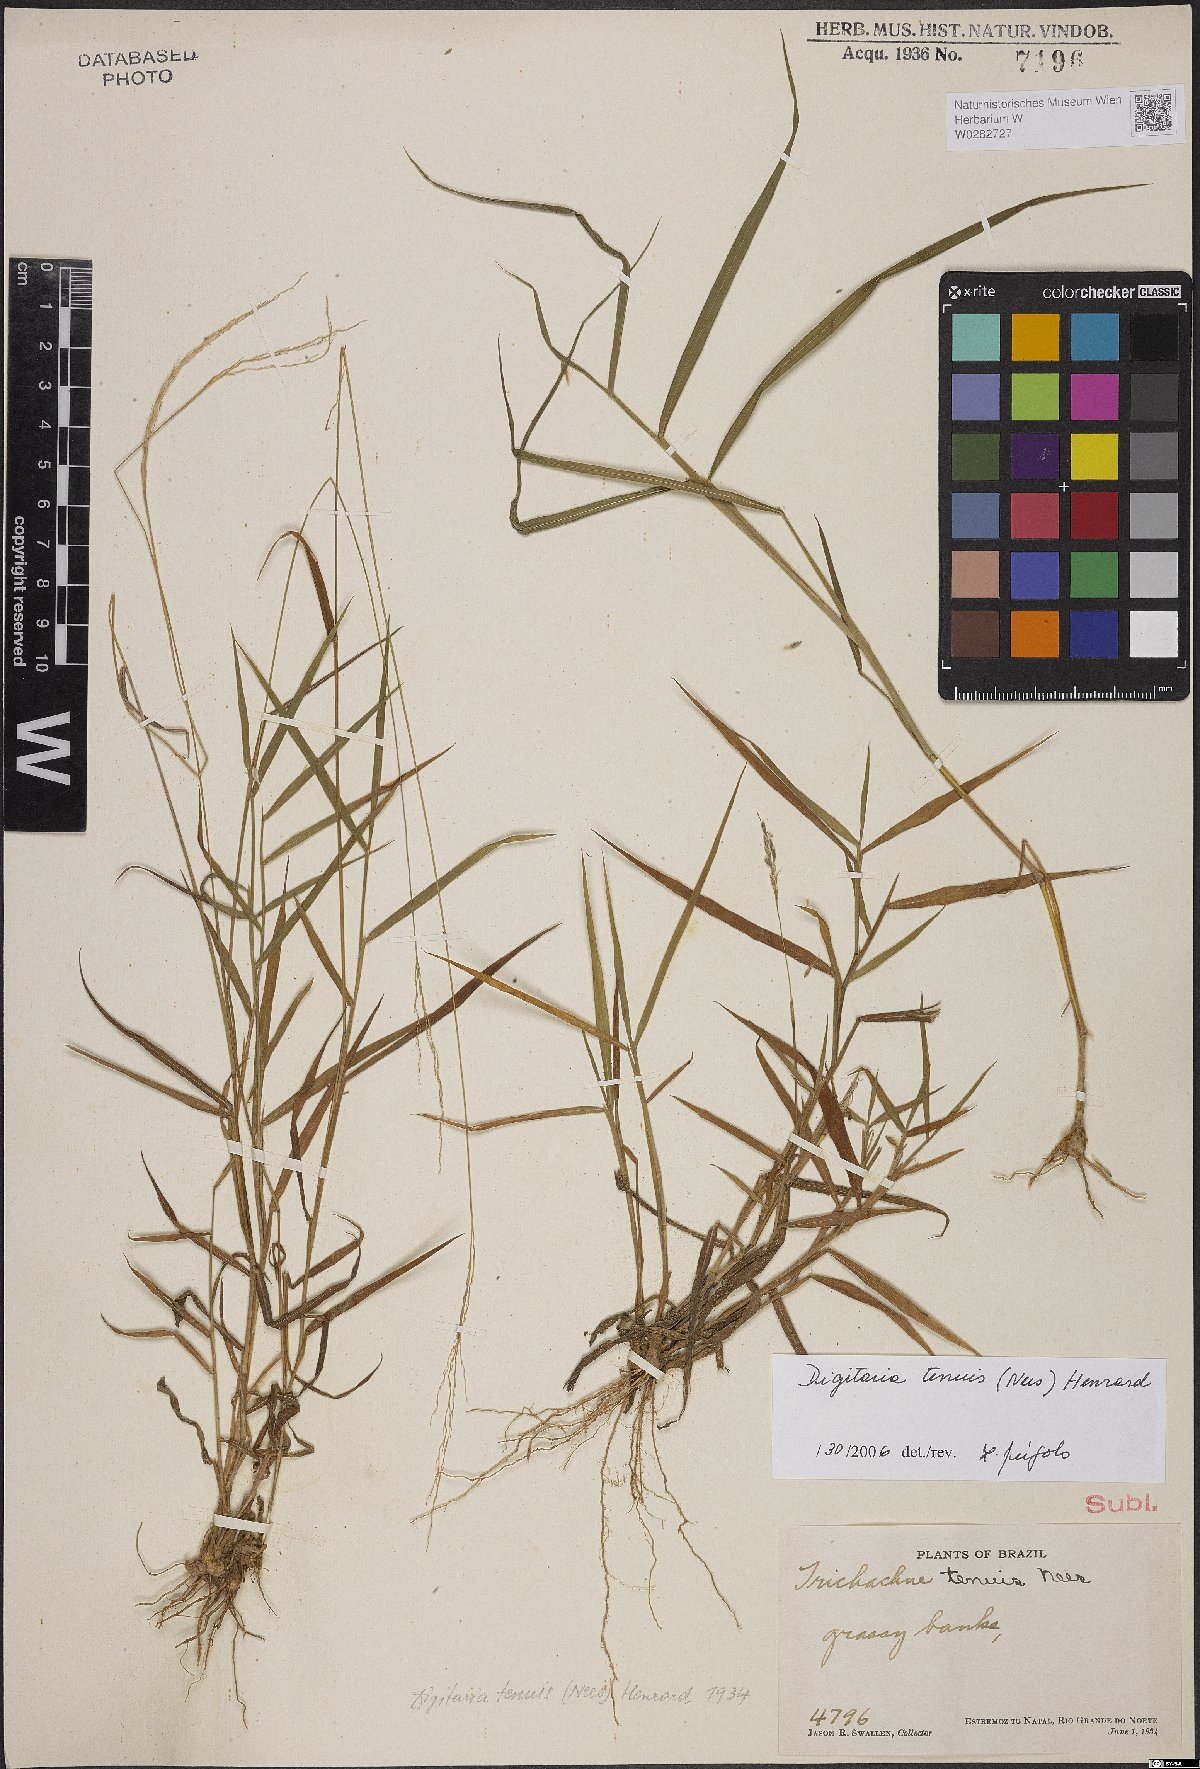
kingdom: Plantae
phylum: Tracheophyta
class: Liliopsida
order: Poales
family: Poaceae
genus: Digitaria
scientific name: Digitaria tenuis
